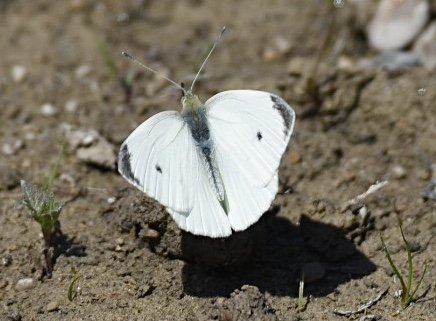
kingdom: Animalia
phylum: Arthropoda
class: Insecta
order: Lepidoptera
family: Pieridae
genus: Pieris
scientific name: Pieris rapae
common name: Cabbage White
